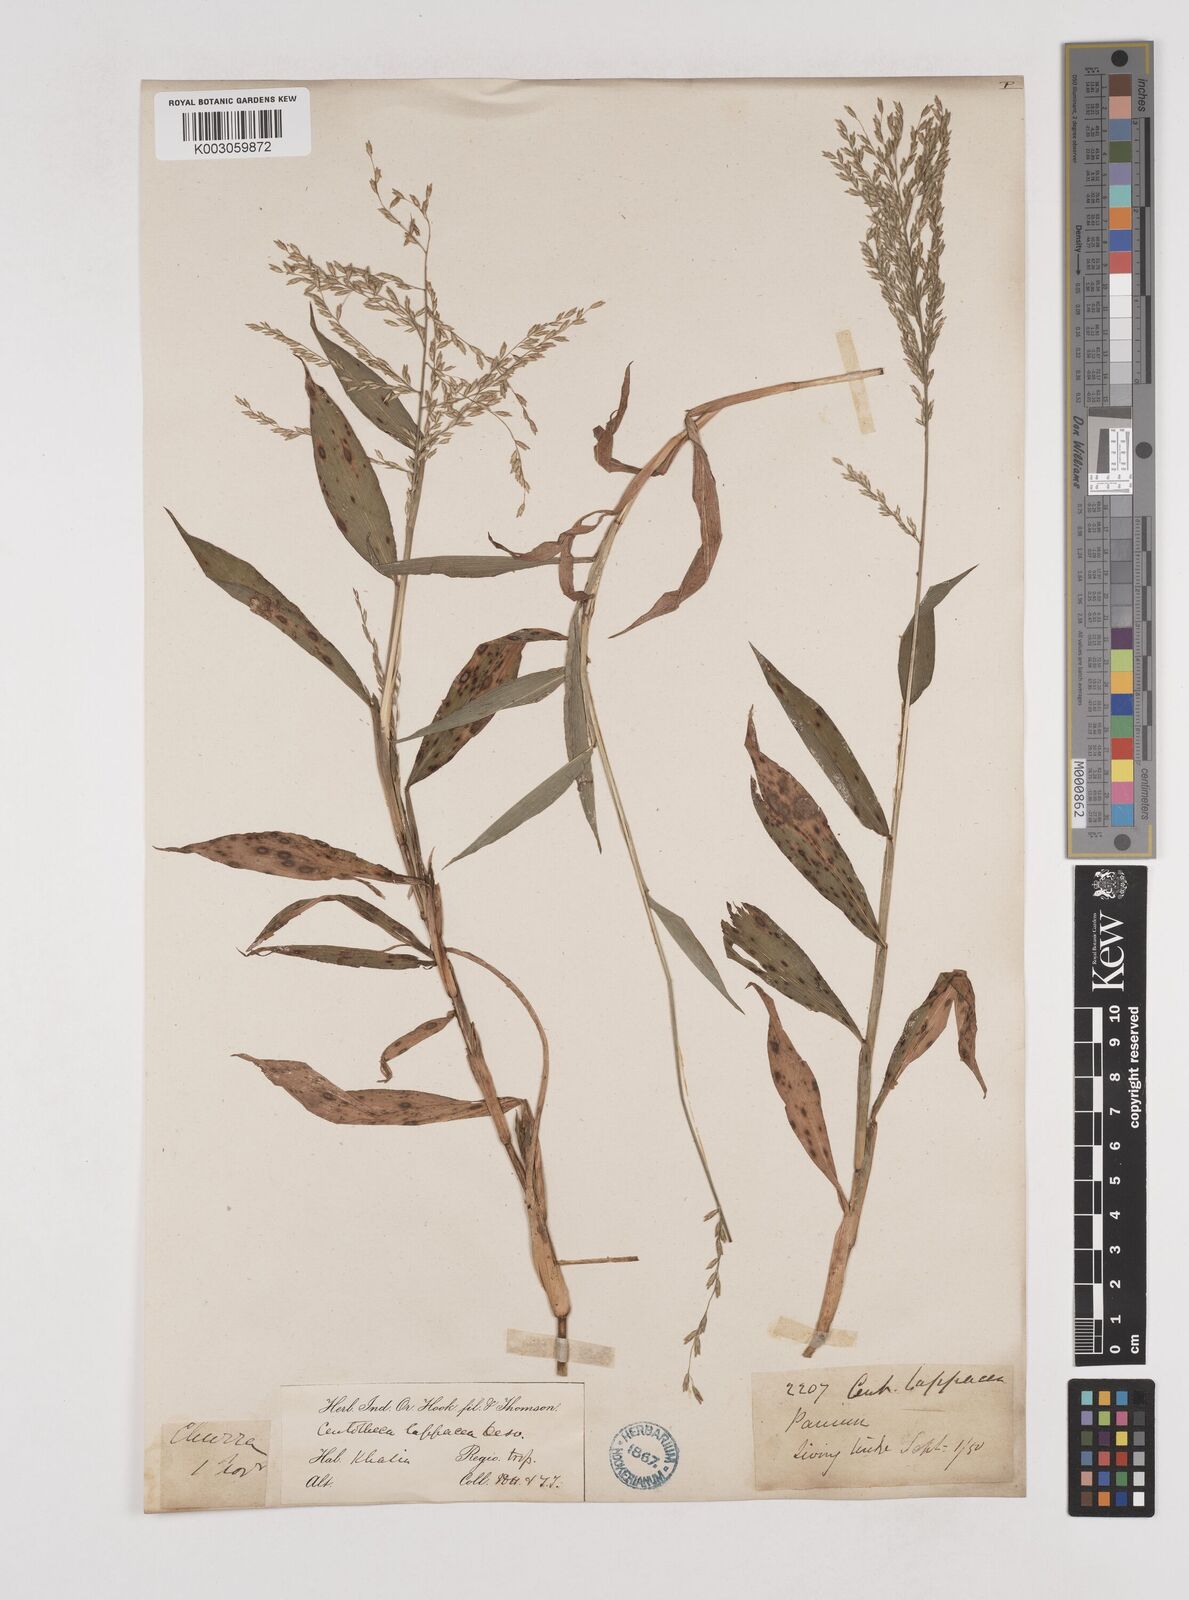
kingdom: Plantae
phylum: Tracheophyta
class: Liliopsida
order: Poales
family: Poaceae
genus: Centotheca
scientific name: Centotheca lappacea
